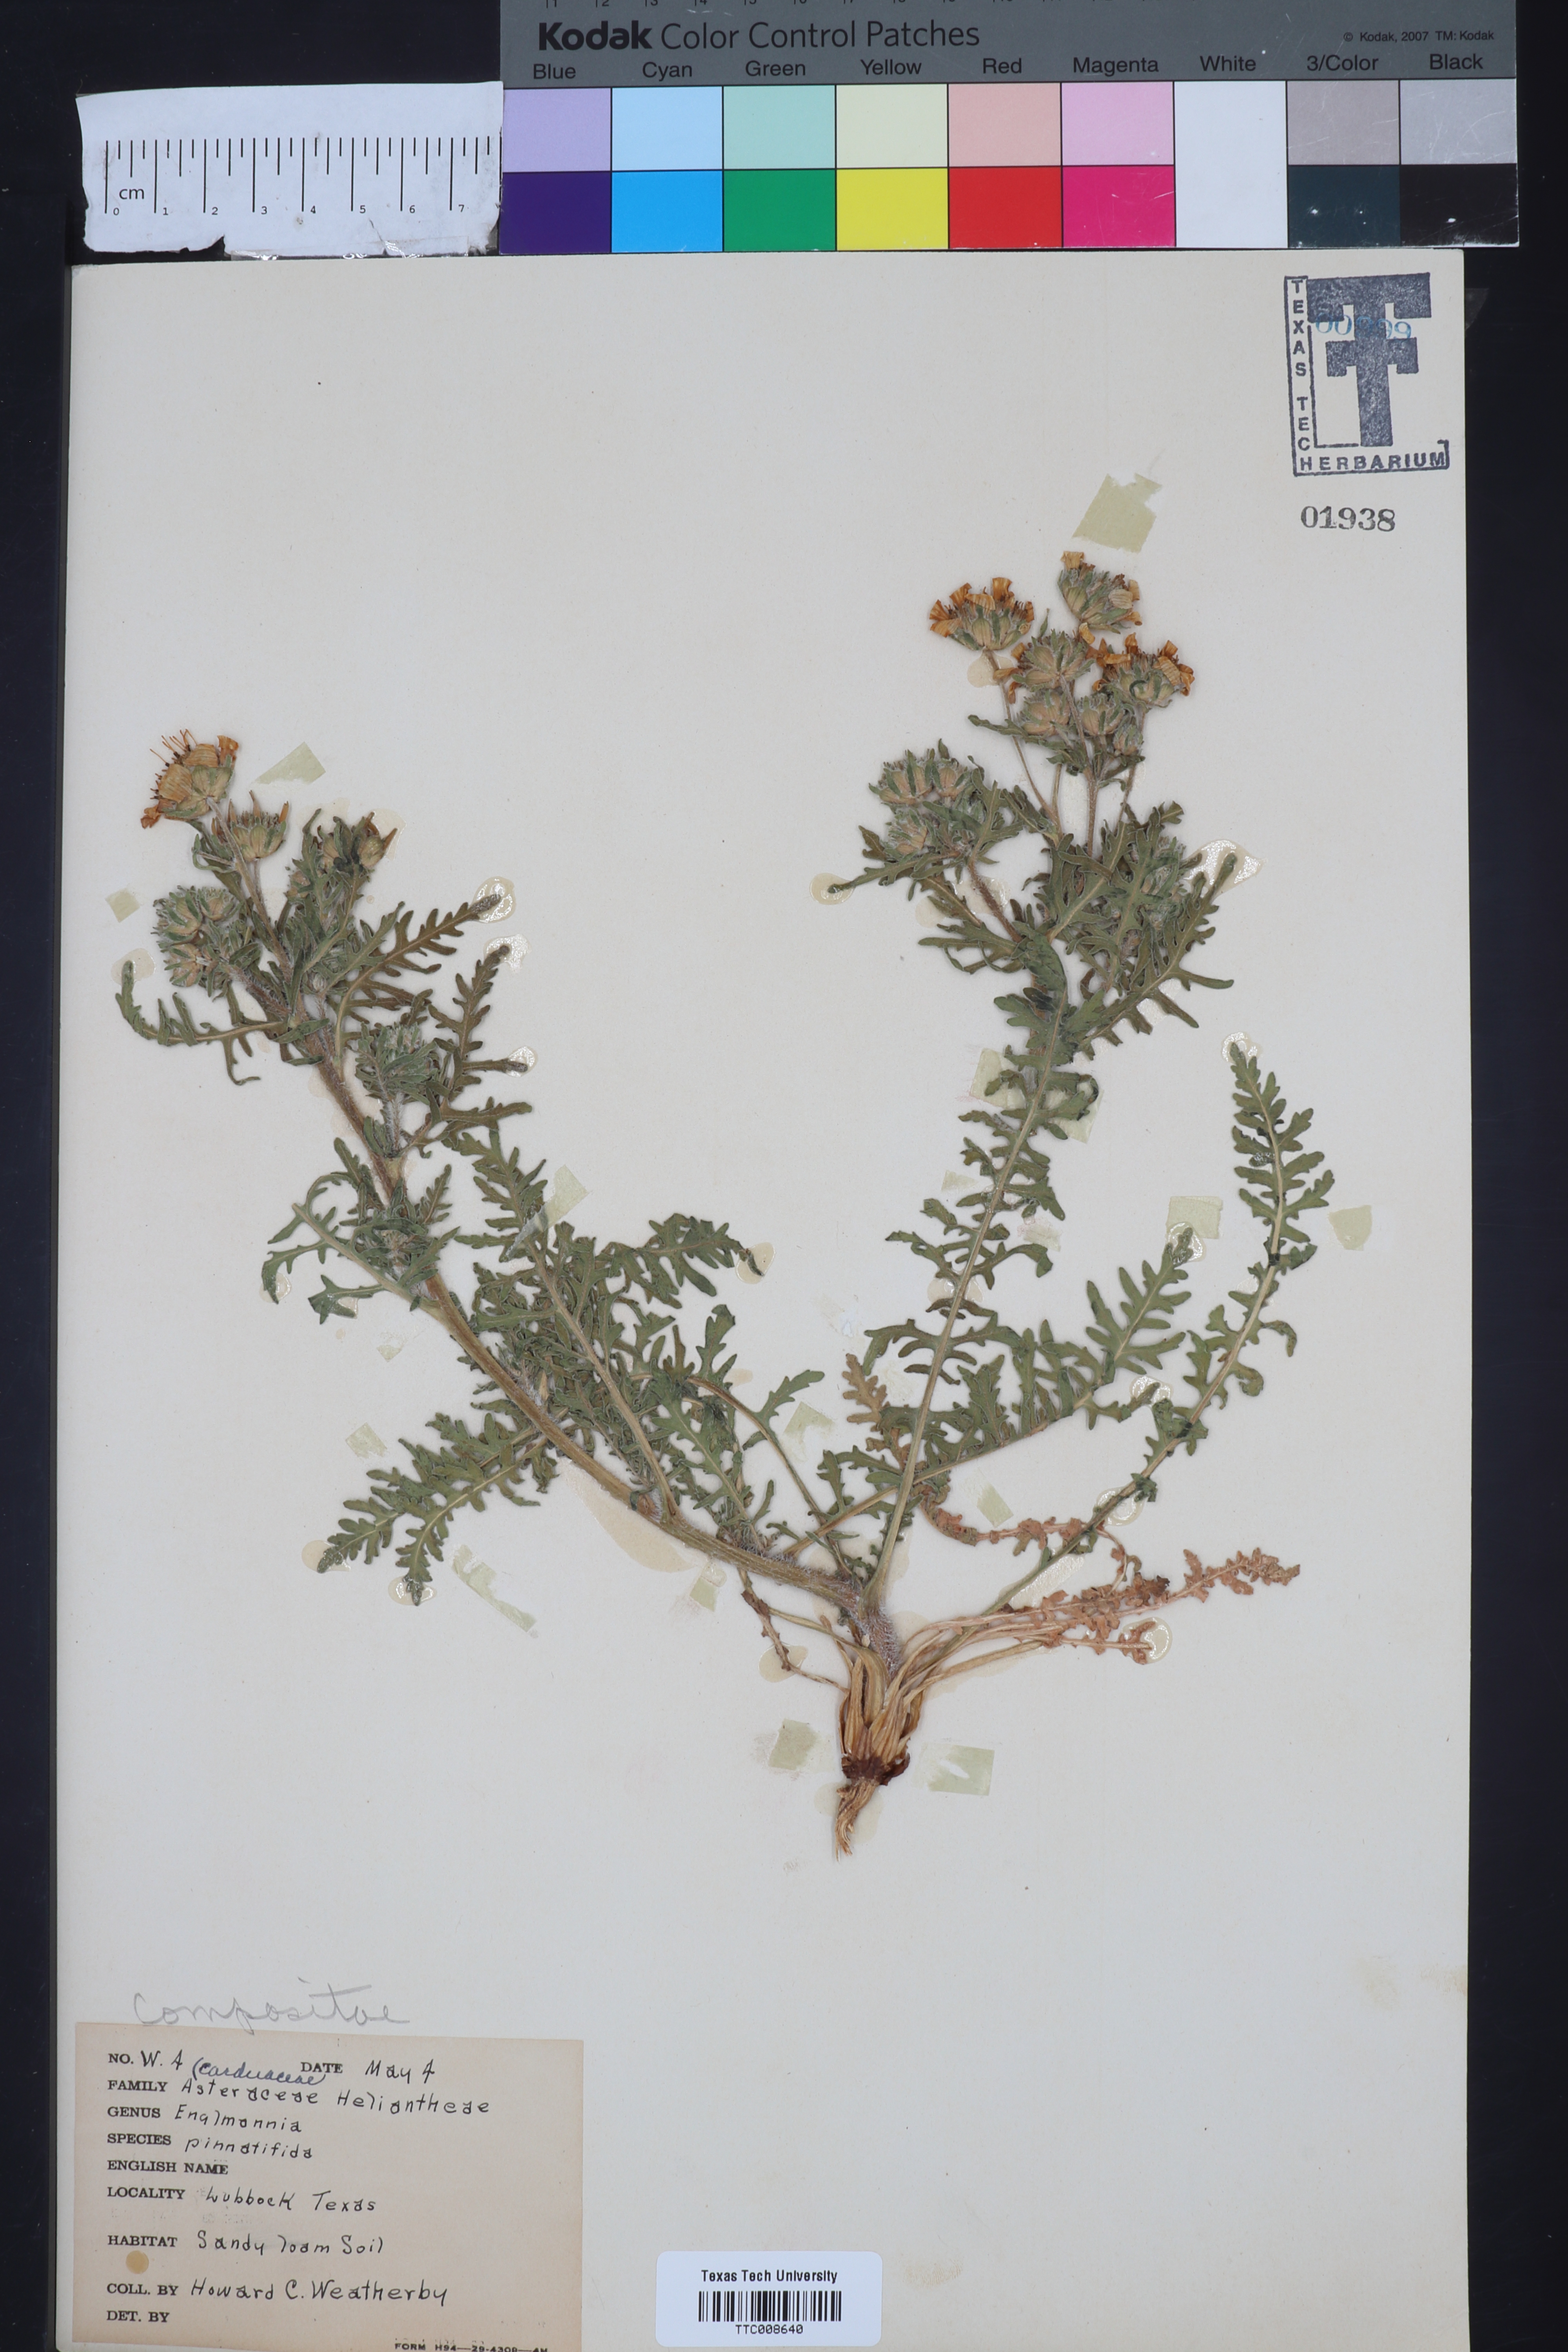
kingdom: Plantae
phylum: Tracheophyta
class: Magnoliopsida
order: Asterales
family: Asteraceae
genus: Engelmannia
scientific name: Engelmannia peristenia
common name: Engelmann's daisy
